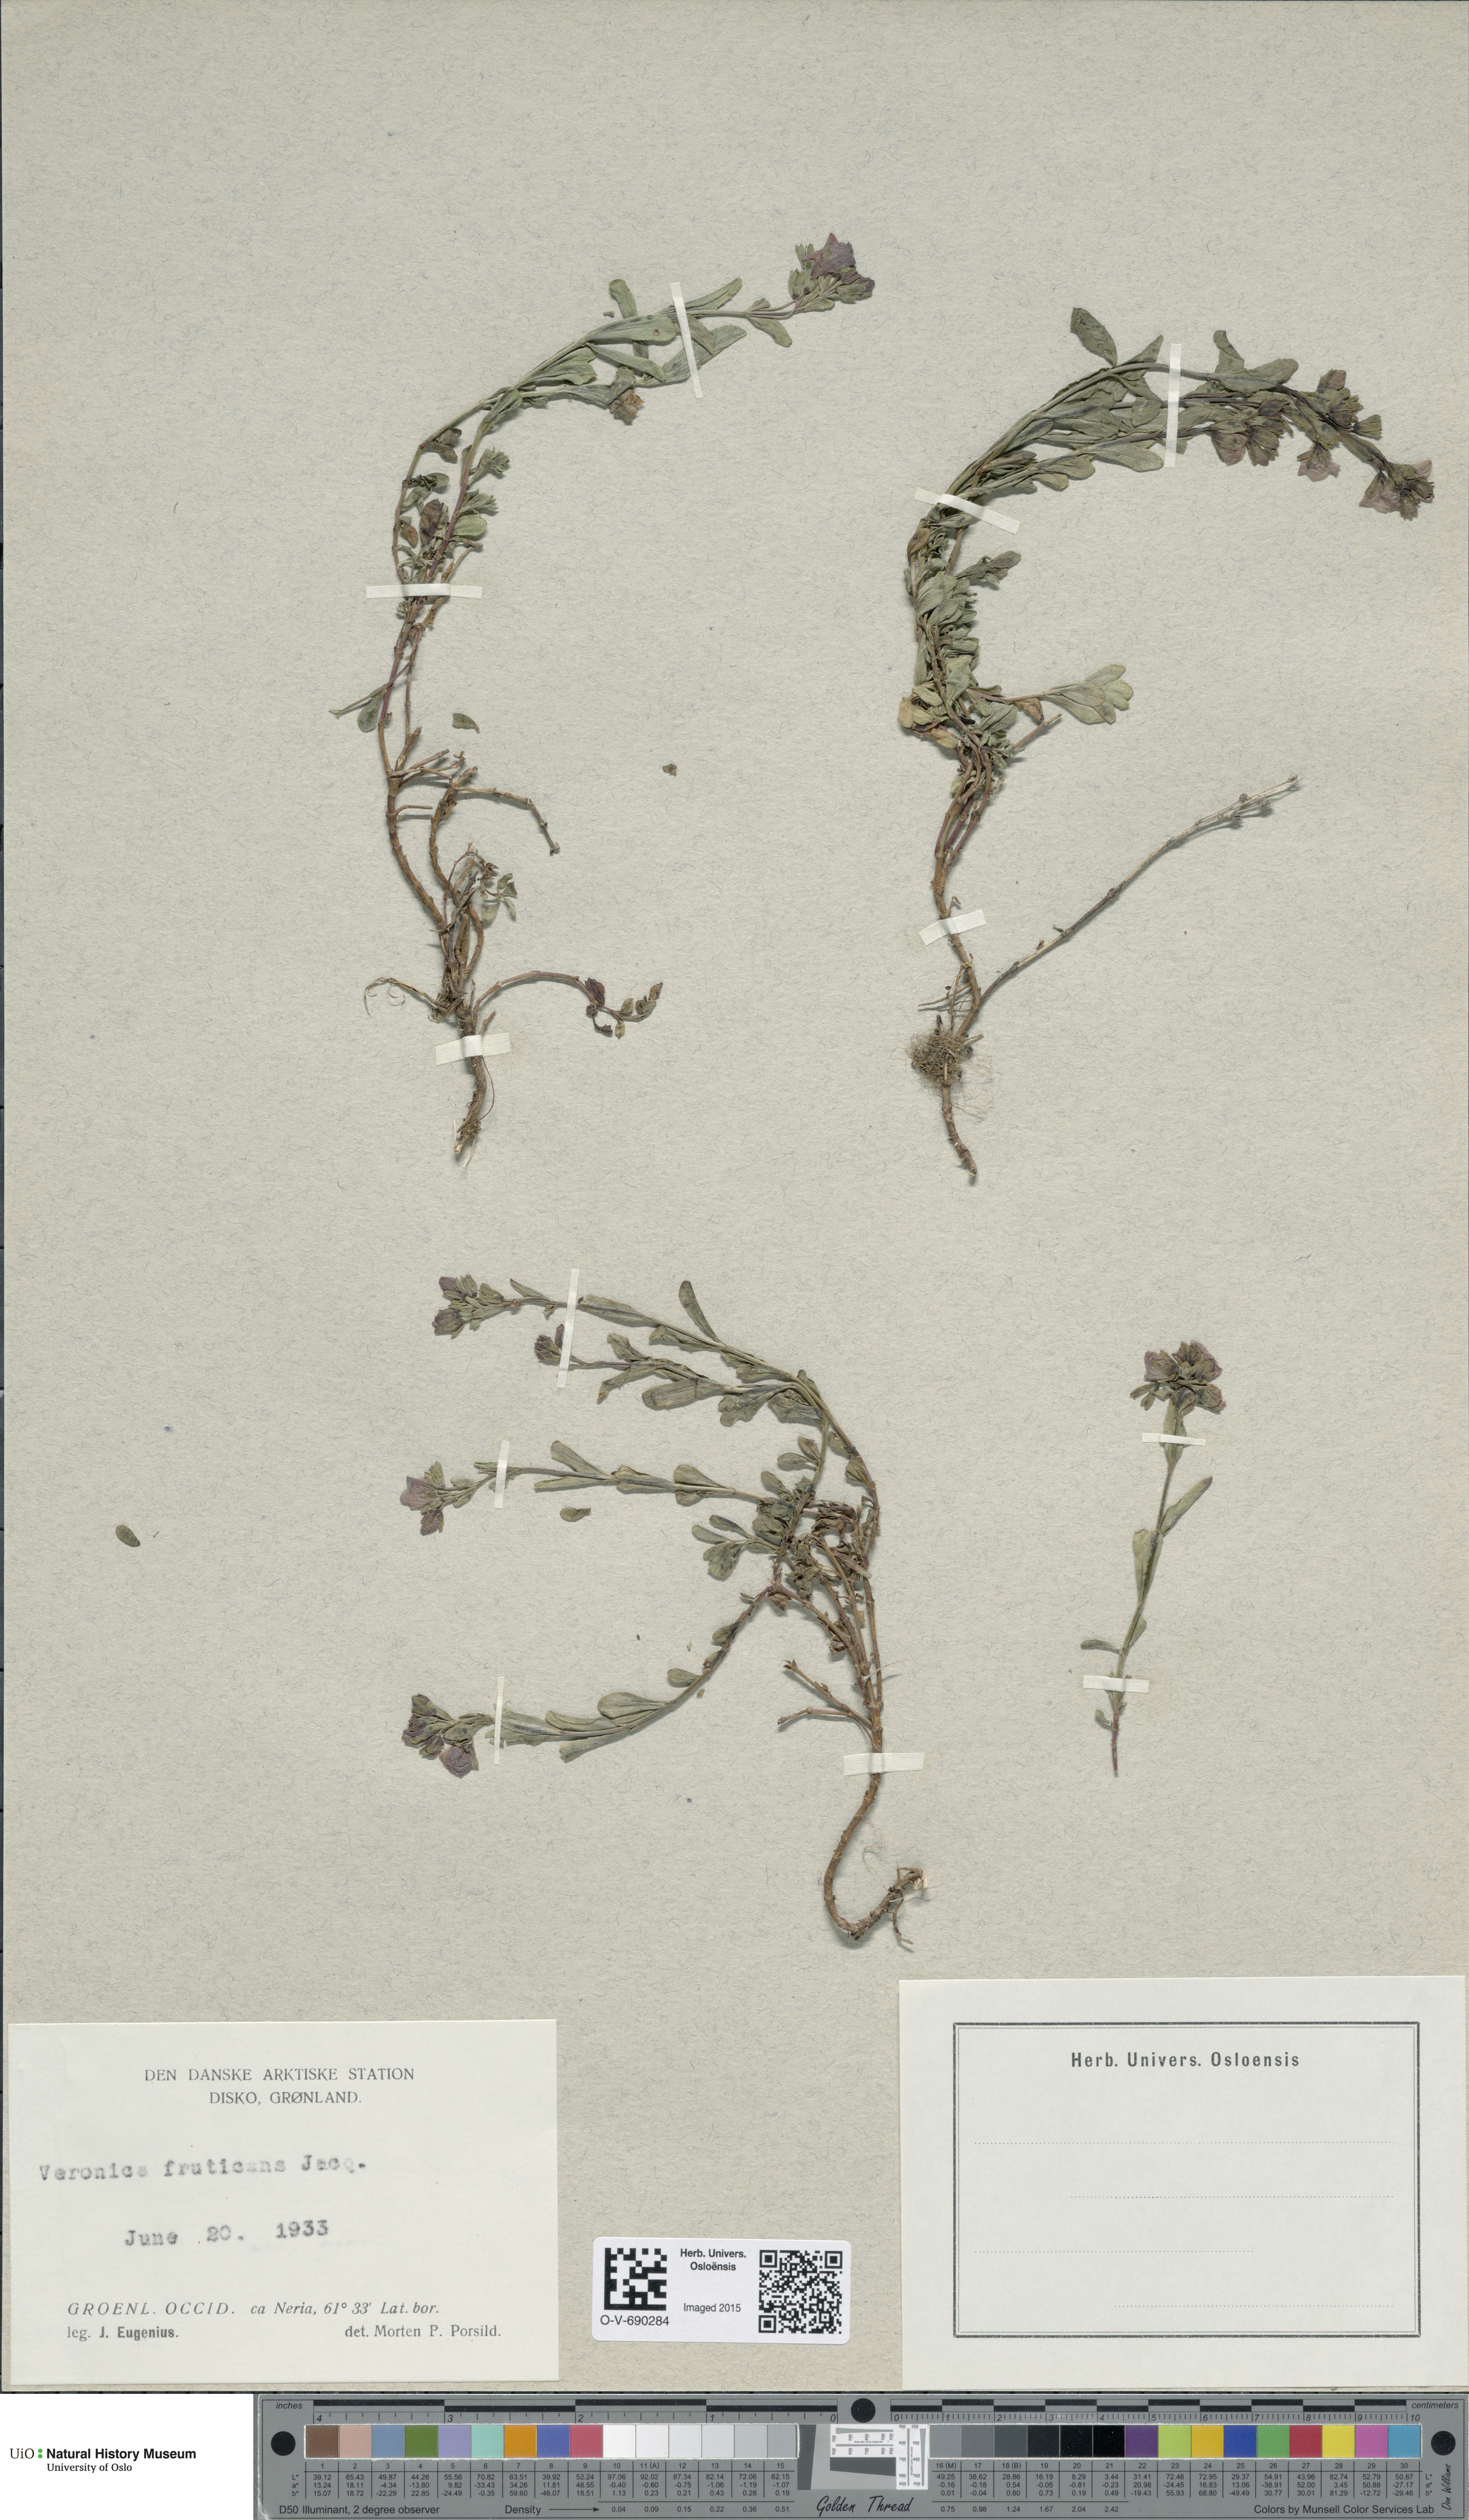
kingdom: Plantae
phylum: Tracheophyta
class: Magnoliopsida
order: Lamiales
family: Plantaginaceae
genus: Veronica
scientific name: Veronica fruticans
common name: Rock speedwell
